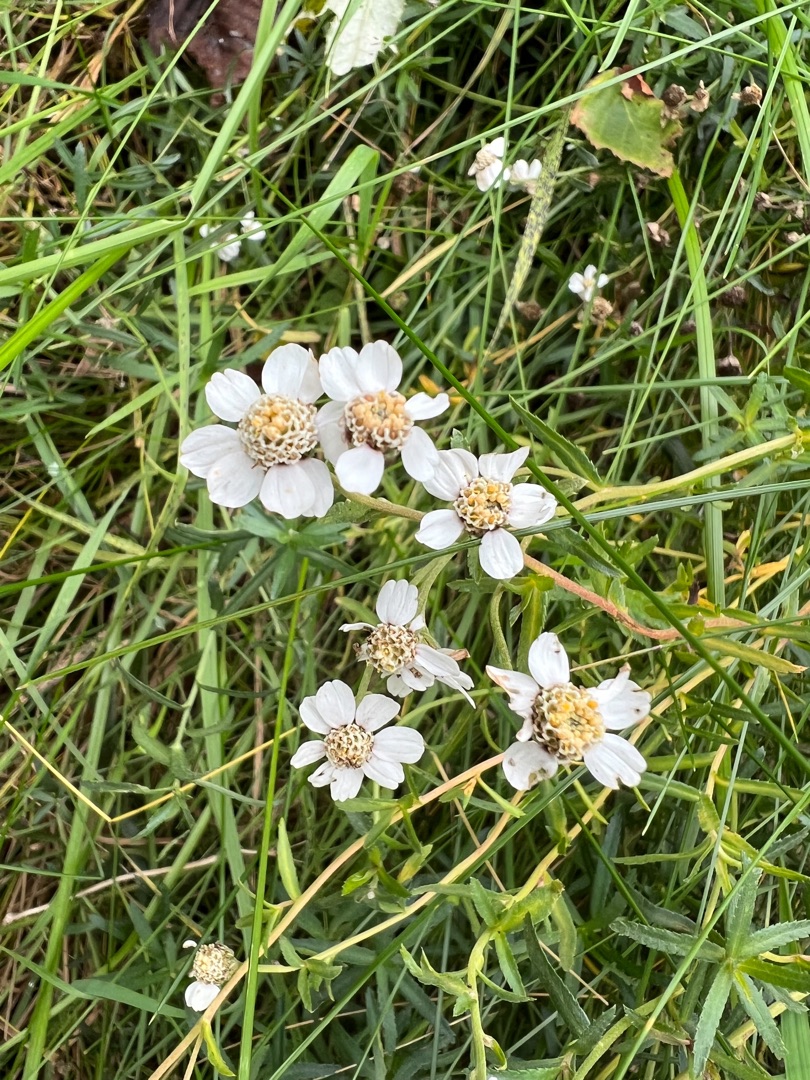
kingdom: Plantae
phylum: Tracheophyta
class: Magnoliopsida
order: Asterales
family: Asteraceae
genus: Achillea
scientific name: Achillea ptarmica
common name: Nyse-røllike
